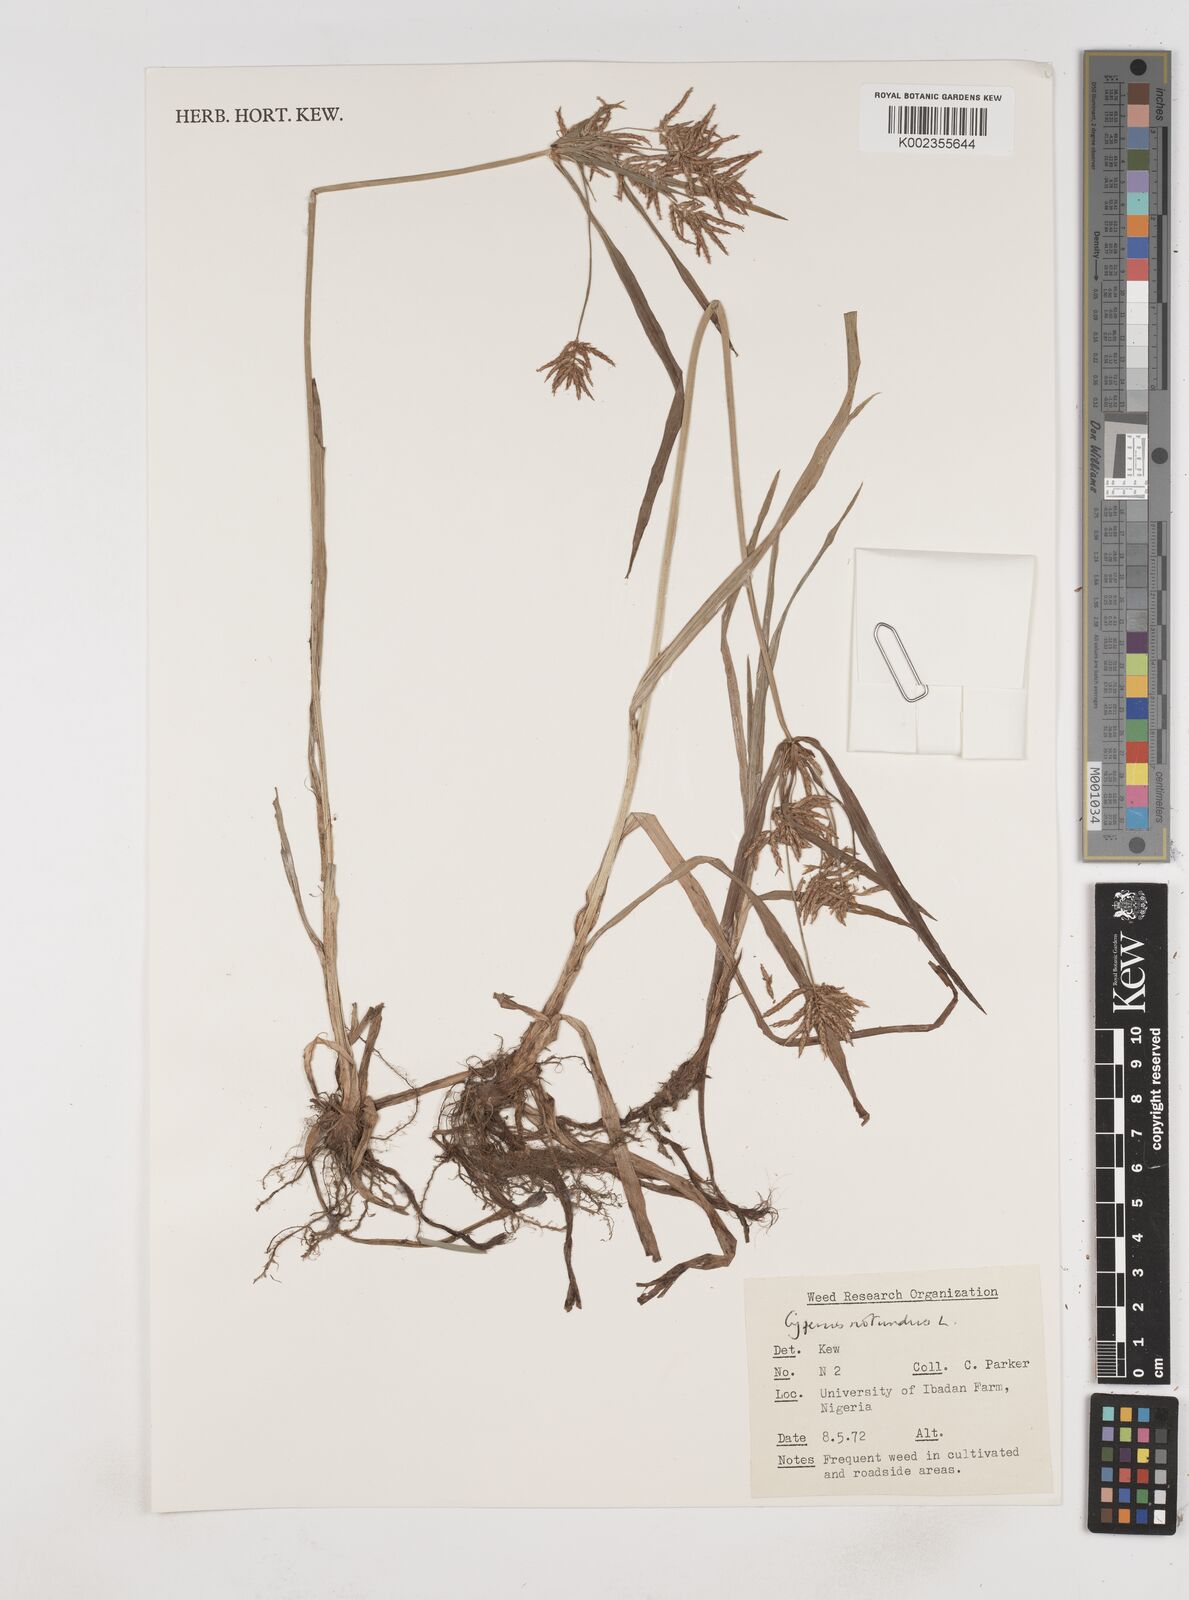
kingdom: Plantae
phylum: Tracheophyta
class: Liliopsida
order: Poales
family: Cyperaceae
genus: Cyperus
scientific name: Cyperus rotundus
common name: Nutgrass
